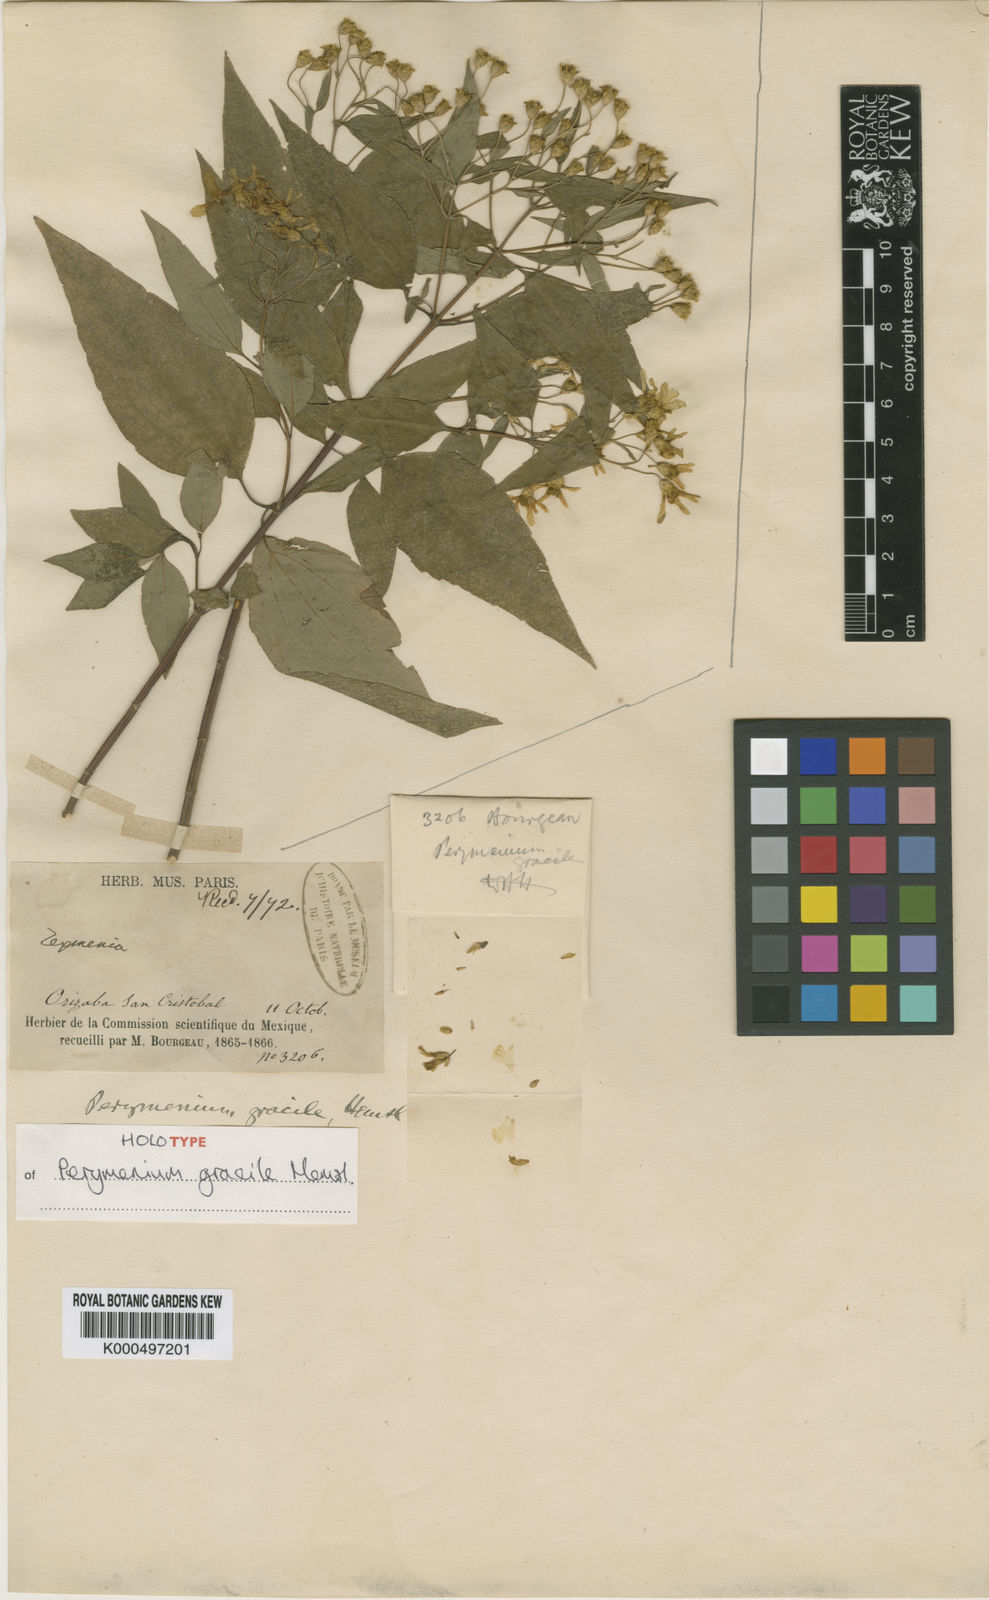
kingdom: Plantae
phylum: Tracheophyta
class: Magnoliopsida
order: Asterales
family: Asteraceae
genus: Perymenium
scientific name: Perymenium gracile
